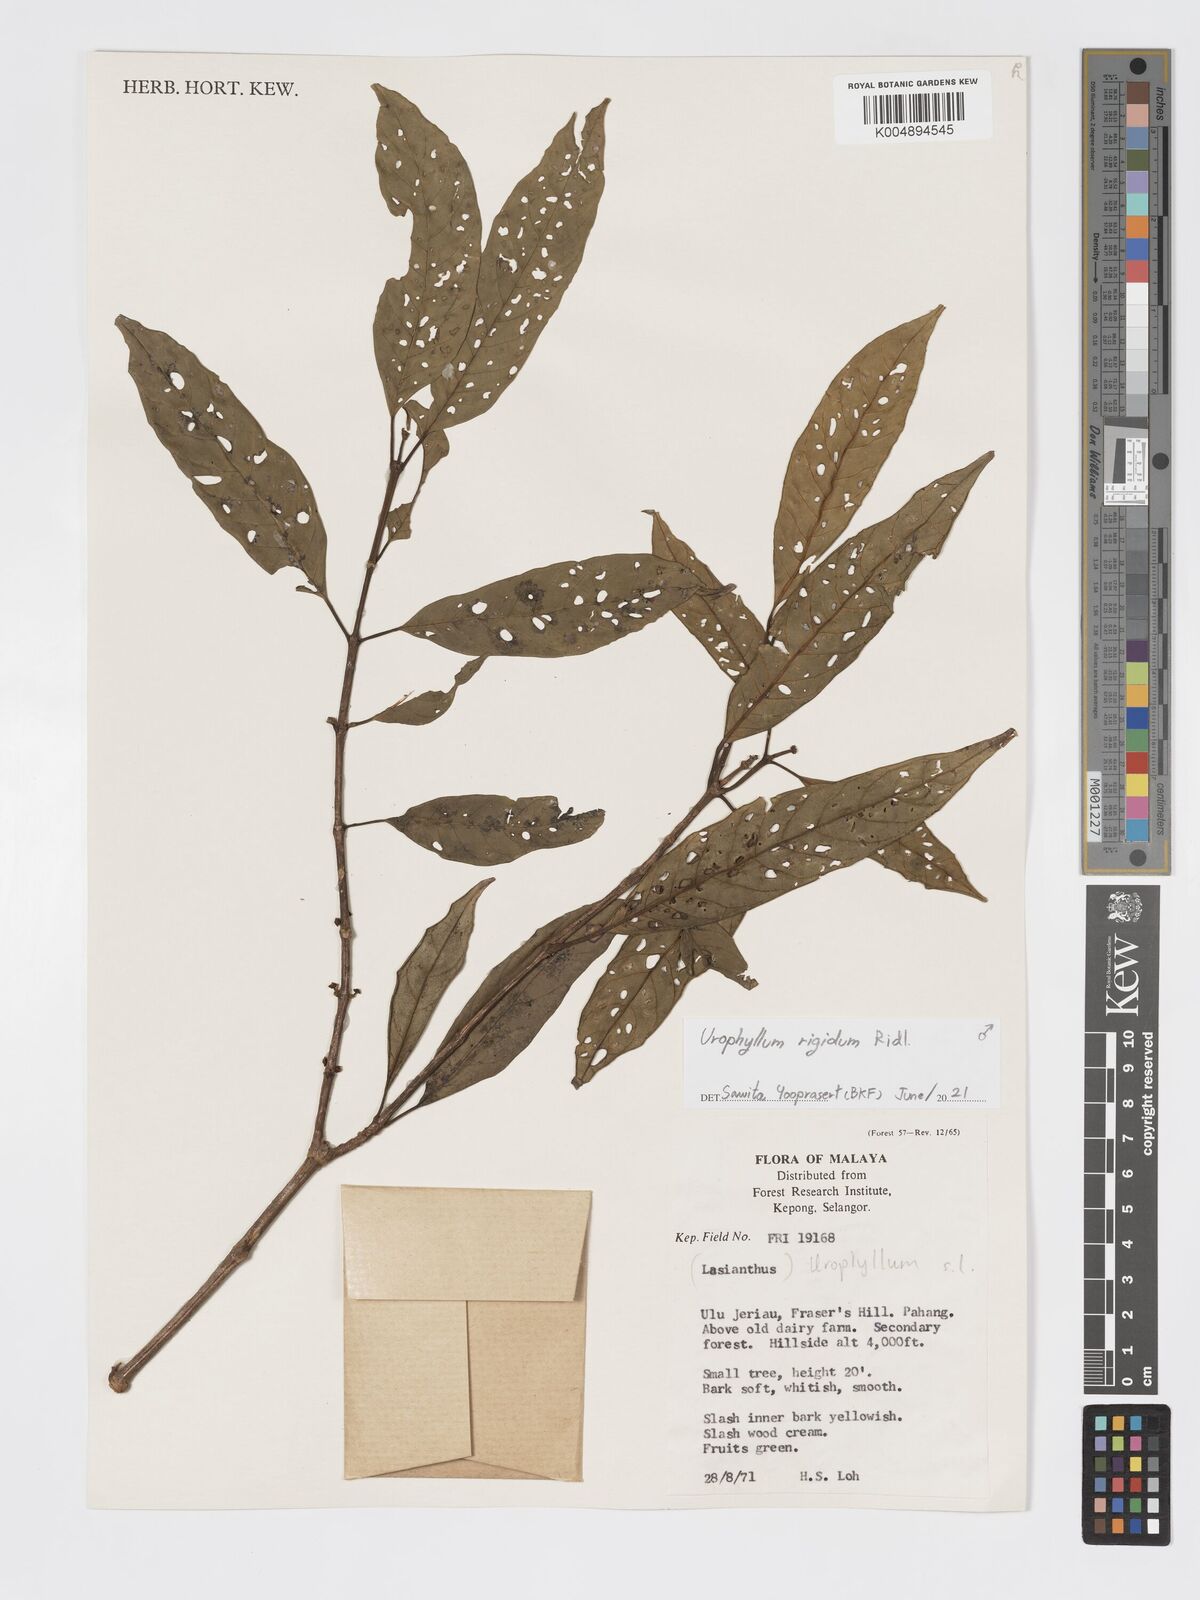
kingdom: Plantae
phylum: Tracheophyta
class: Magnoliopsida
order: Gentianales
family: Rubiaceae
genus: Urophyllum
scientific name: Urophyllum leucophlaeum
